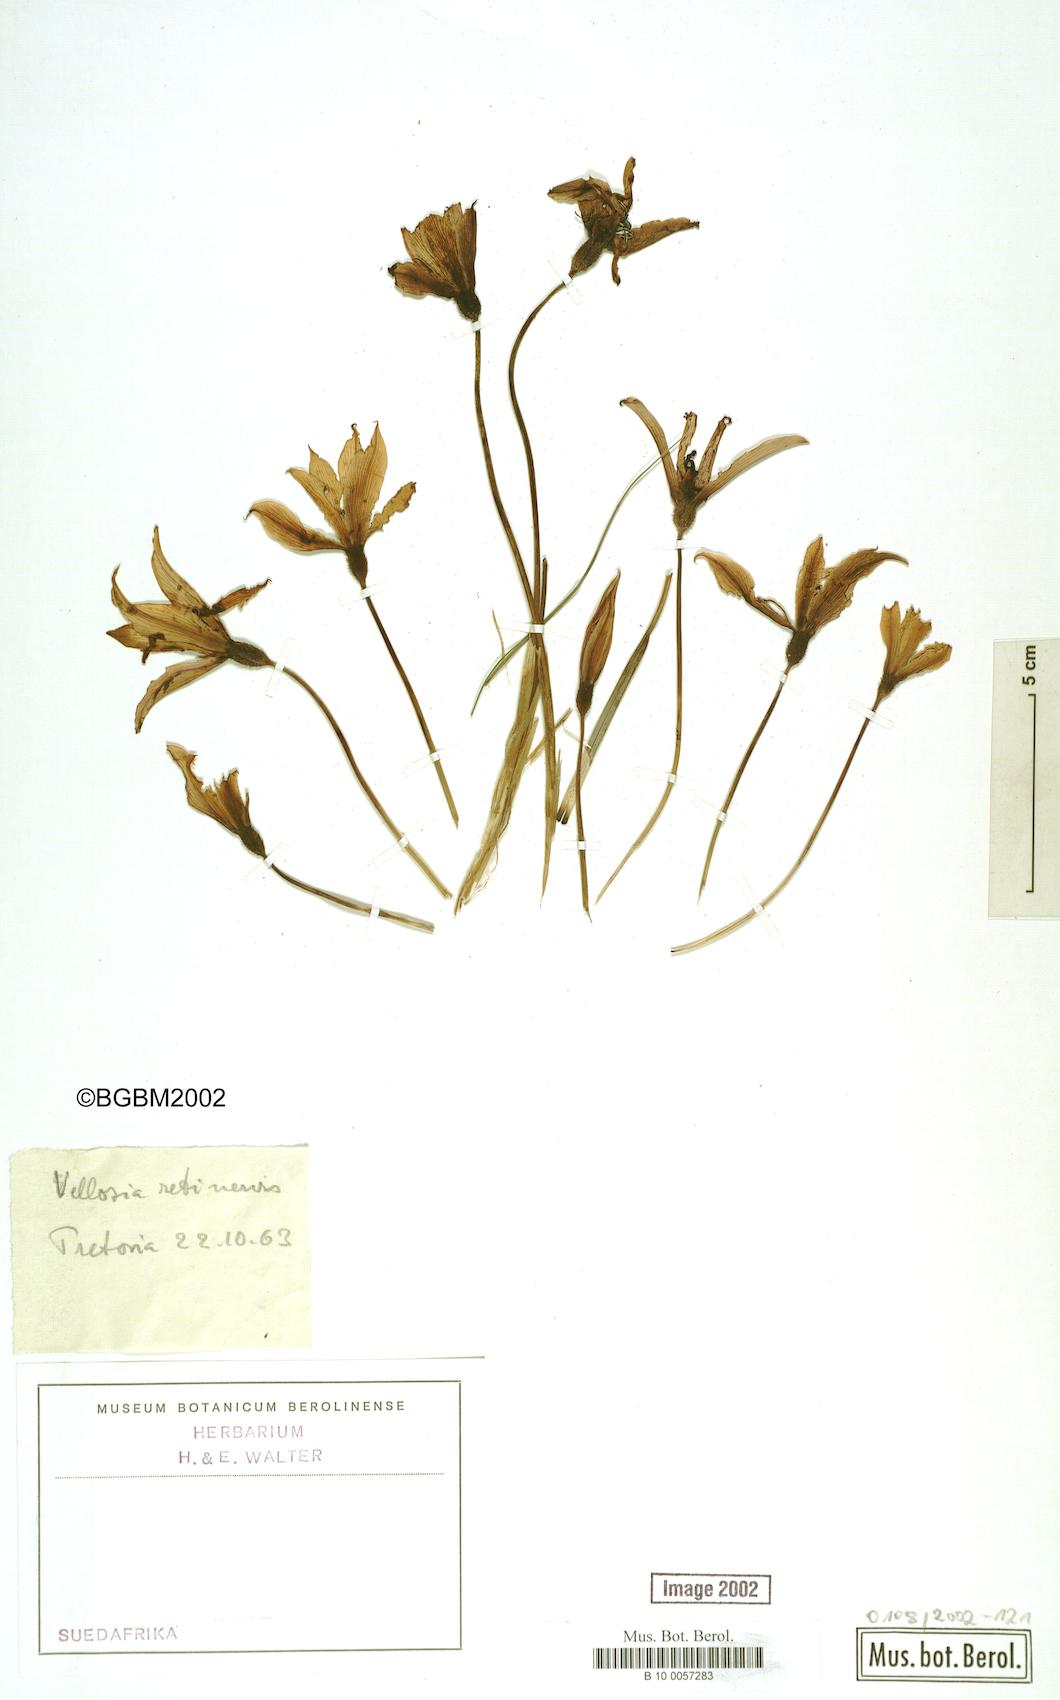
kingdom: Plantae
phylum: Tracheophyta
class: Liliopsida
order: Pandanales
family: Velloziaceae
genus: Xerophyta
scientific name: Xerophyta retinervis
